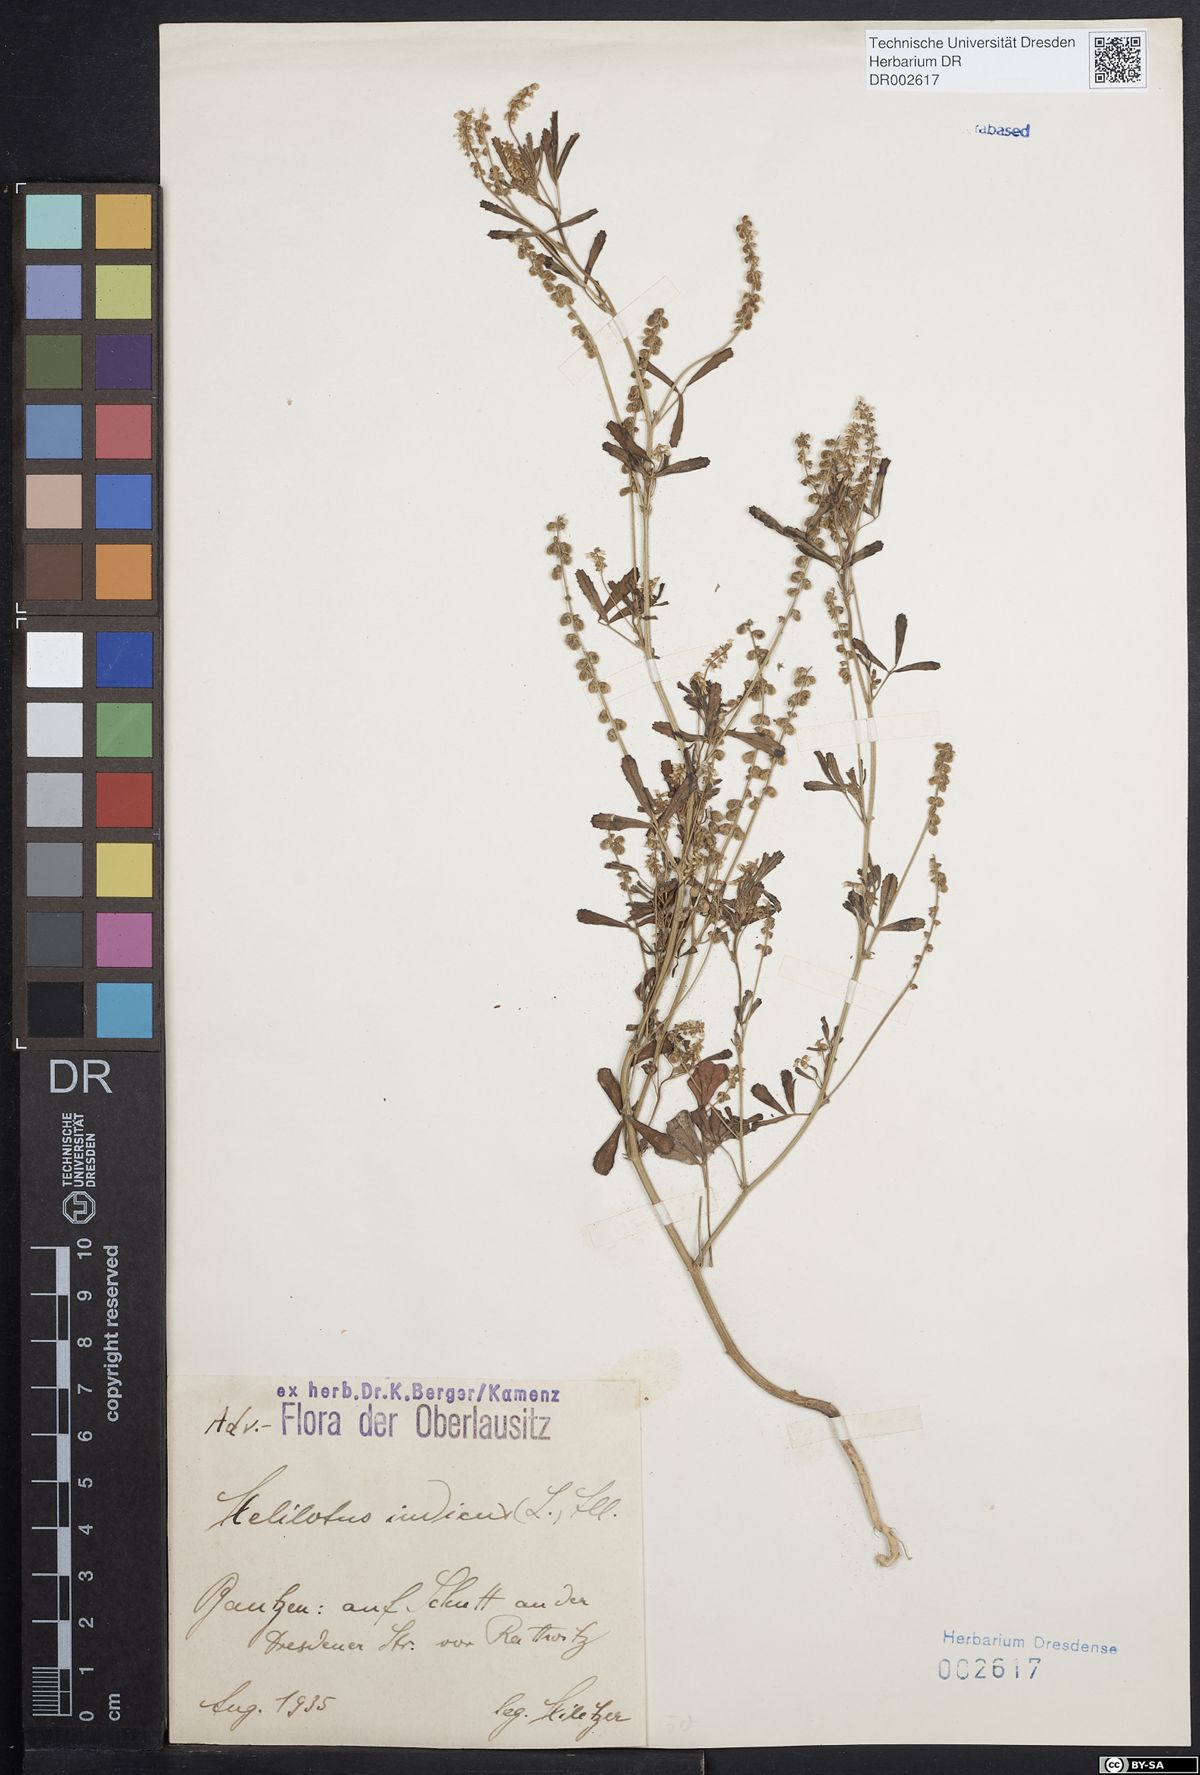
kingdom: Plantae
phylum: Tracheophyta
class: Magnoliopsida
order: Fabales
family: Fabaceae
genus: Melilotus
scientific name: Melilotus indicus
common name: Small melilot
